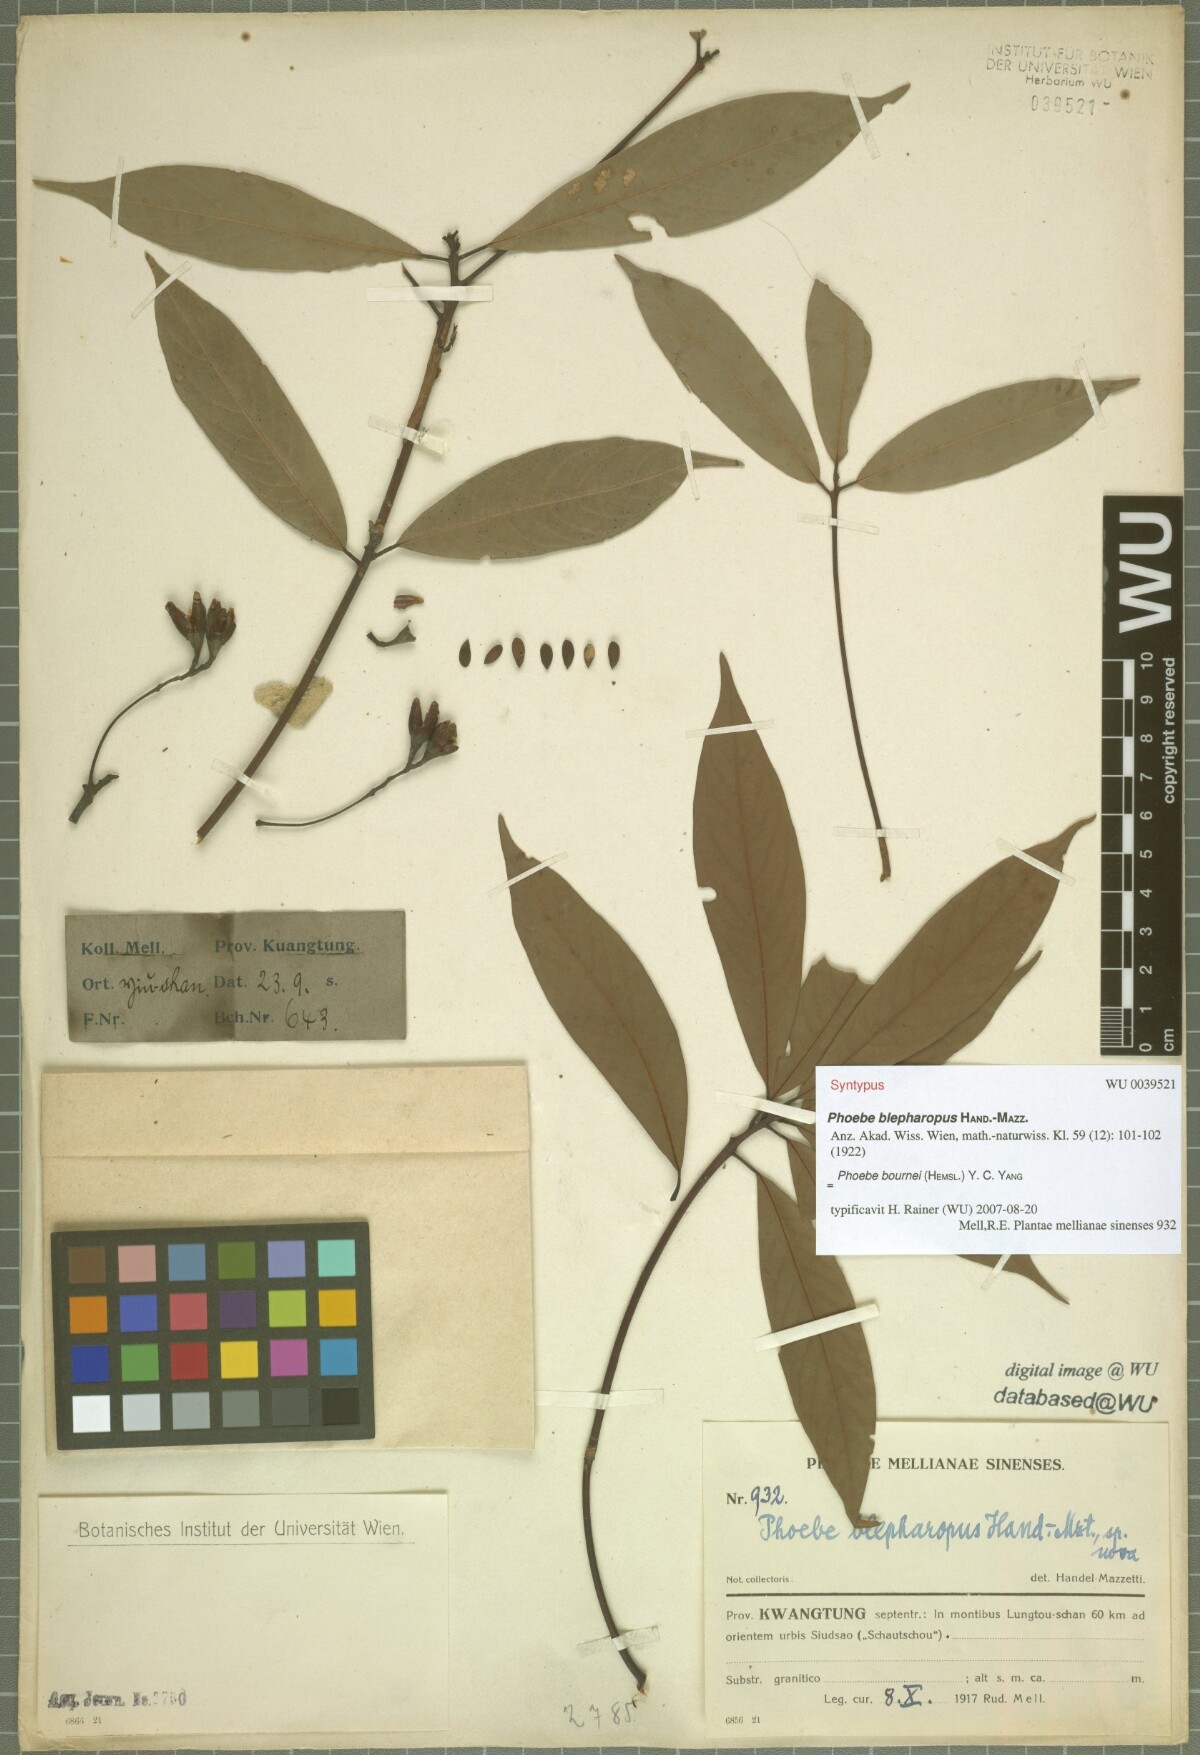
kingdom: Plantae
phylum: Tracheophyta
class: Magnoliopsida
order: Laurales
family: Lauraceae
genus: Phoebe
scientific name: Phoebe bournei
